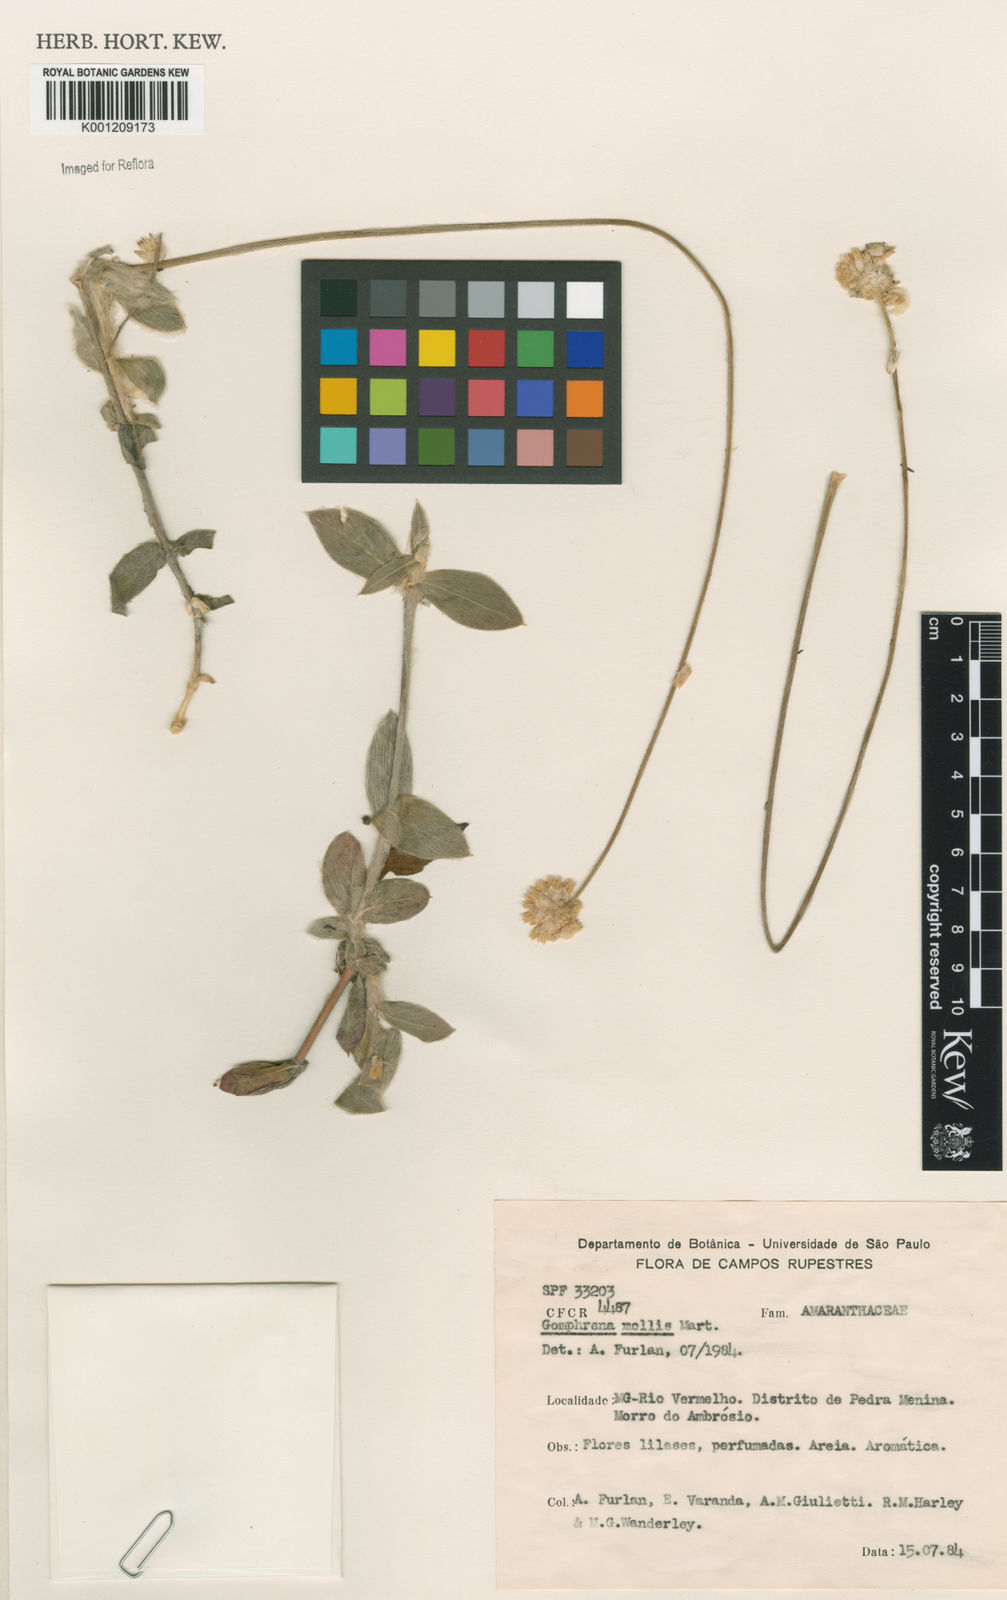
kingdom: Plantae
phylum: Tracheophyta
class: Magnoliopsida
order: Caryophyllales
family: Amaranthaceae
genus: Gomphrena
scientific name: Gomphrena mollis
